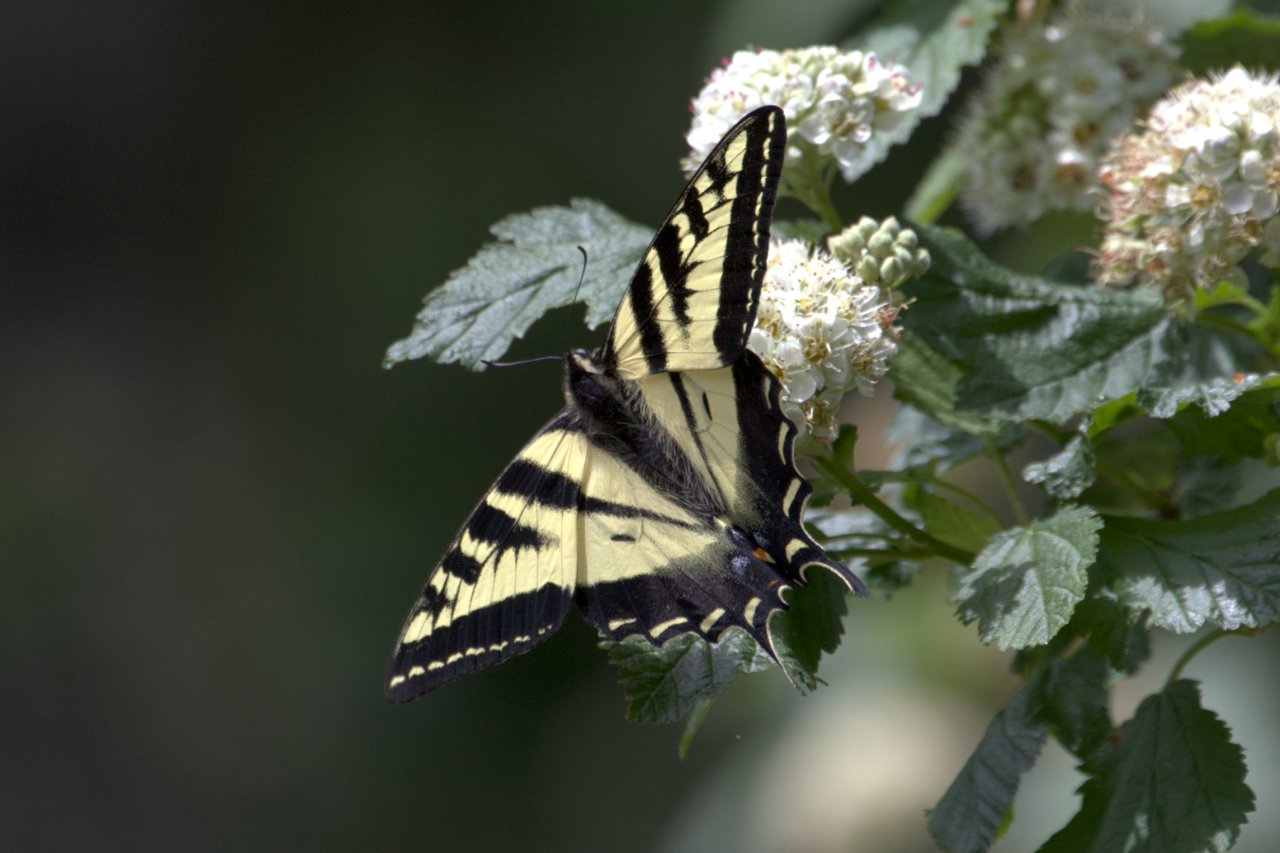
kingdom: Animalia
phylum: Arthropoda
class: Insecta
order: Lepidoptera
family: Papilionidae
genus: Pterourus
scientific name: Pterourus rutulus
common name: Western Tiger Swallowtail
